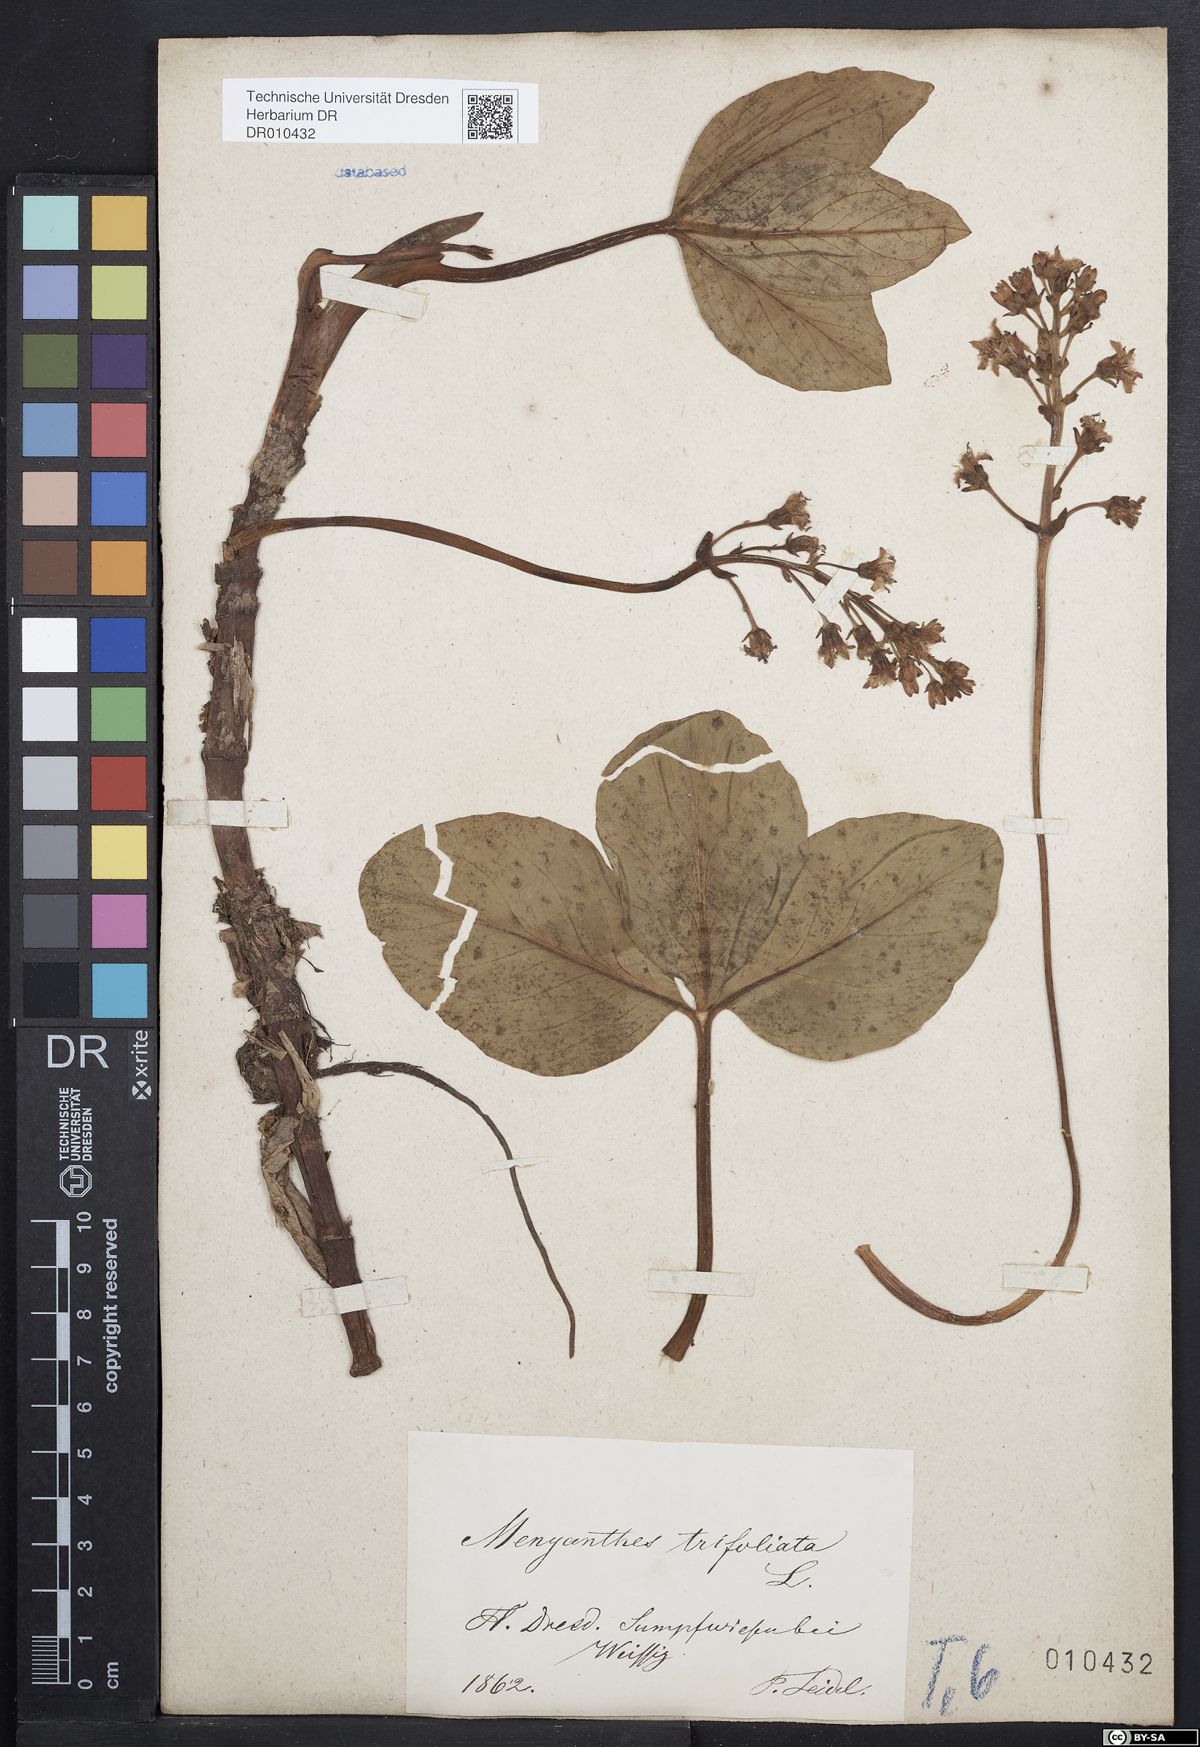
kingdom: Plantae
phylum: Tracheophyta
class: Magnoliopsida
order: Asterales
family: Menyanthaceae
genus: Menyanthes
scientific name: Menyanthes trifoliata
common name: Bogbean
